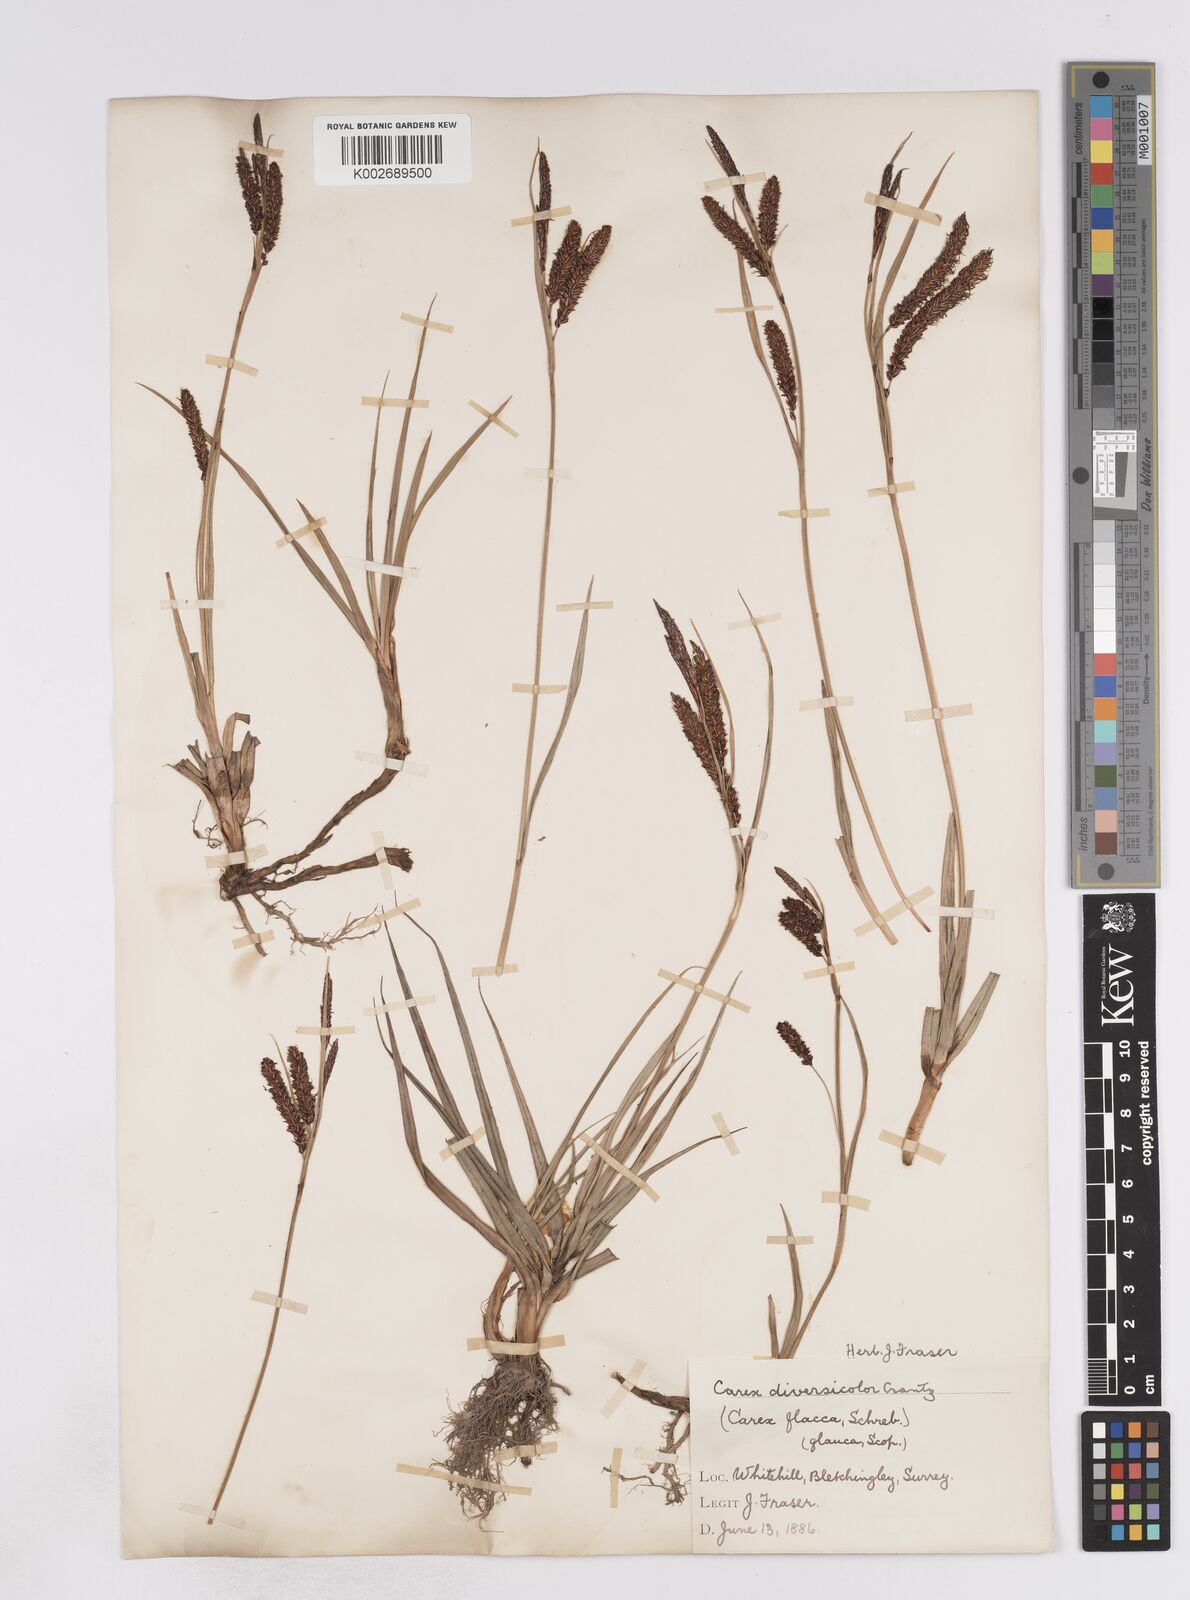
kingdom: Plantae
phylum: Tracheophyta
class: Liliopsida
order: Poales
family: Cyperaceae
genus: Carex
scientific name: Carex flacca
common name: Glaucous sedge
